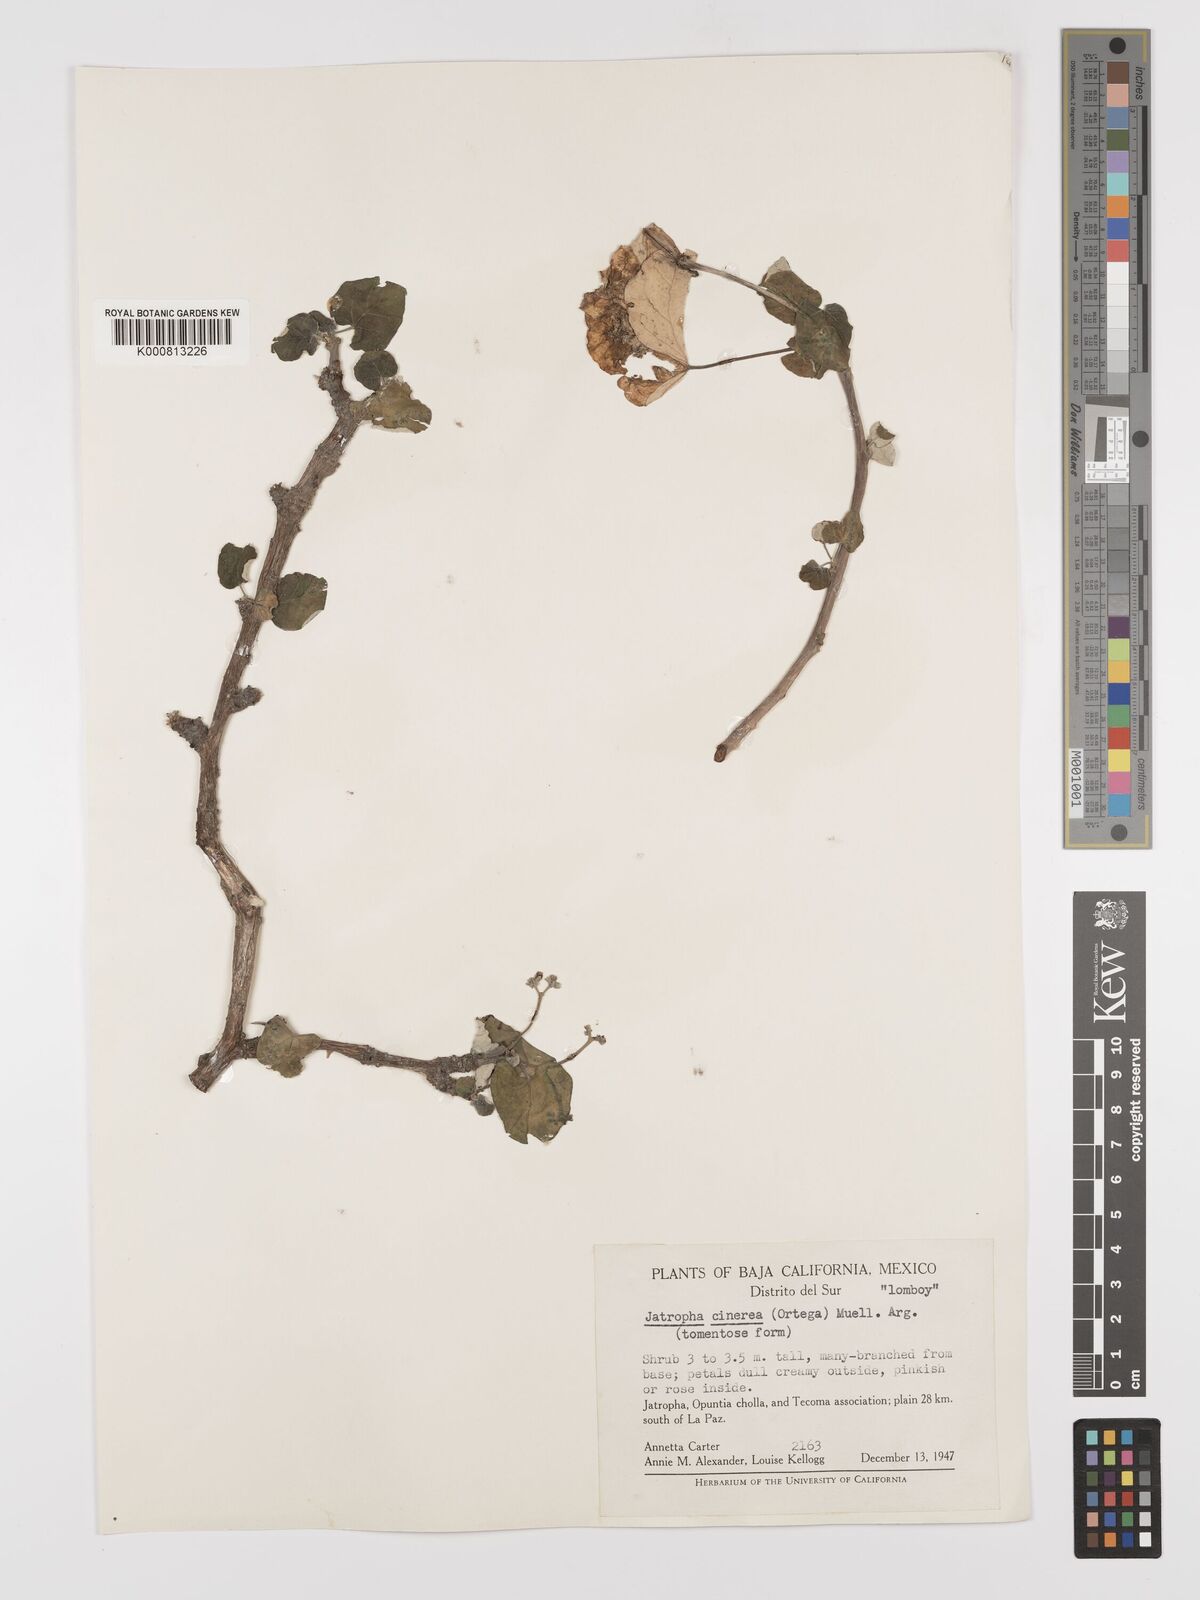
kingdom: Plantae
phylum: Tracheophyta
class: Magnoliopsida
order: Malpighiales
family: Euphorbiaceae
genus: Jatropha
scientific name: Jatropha
